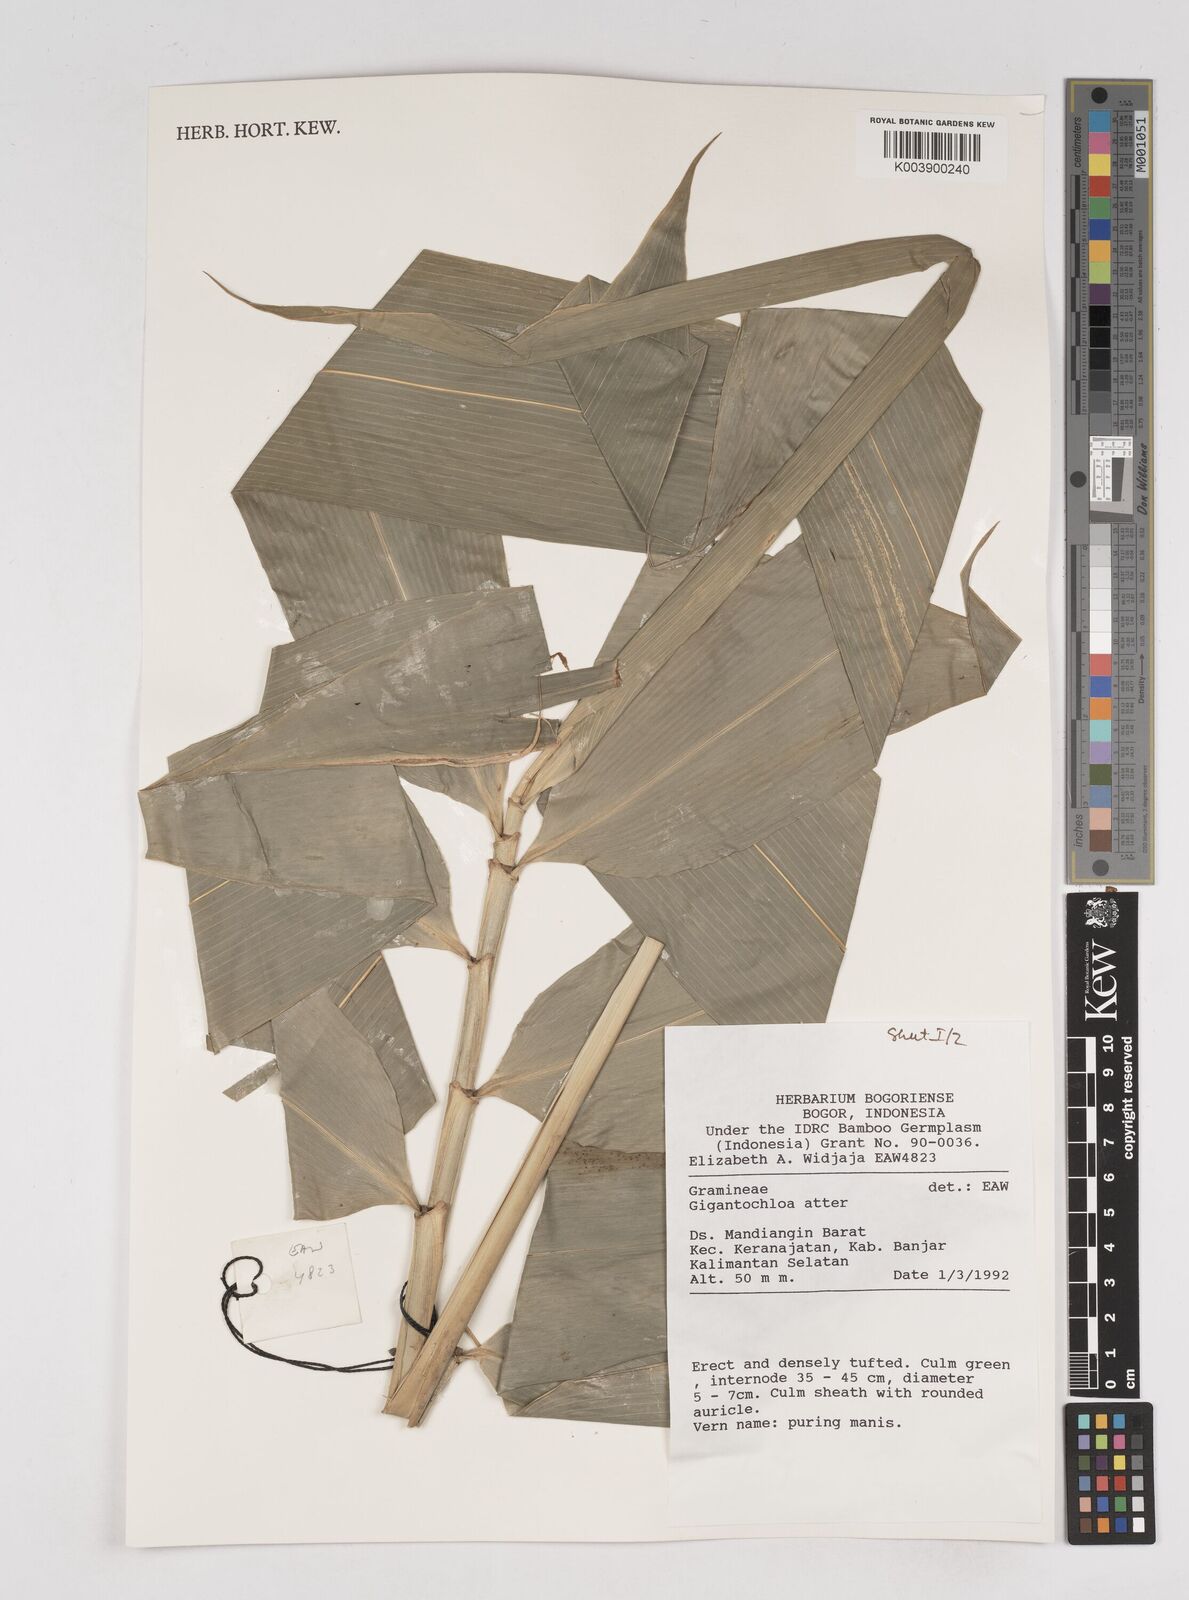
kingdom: Plantae
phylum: Tracheophyta
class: Liliopsida
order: Poales
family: Poaceae
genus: Gigantochloa
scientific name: Gigantochloa atter
